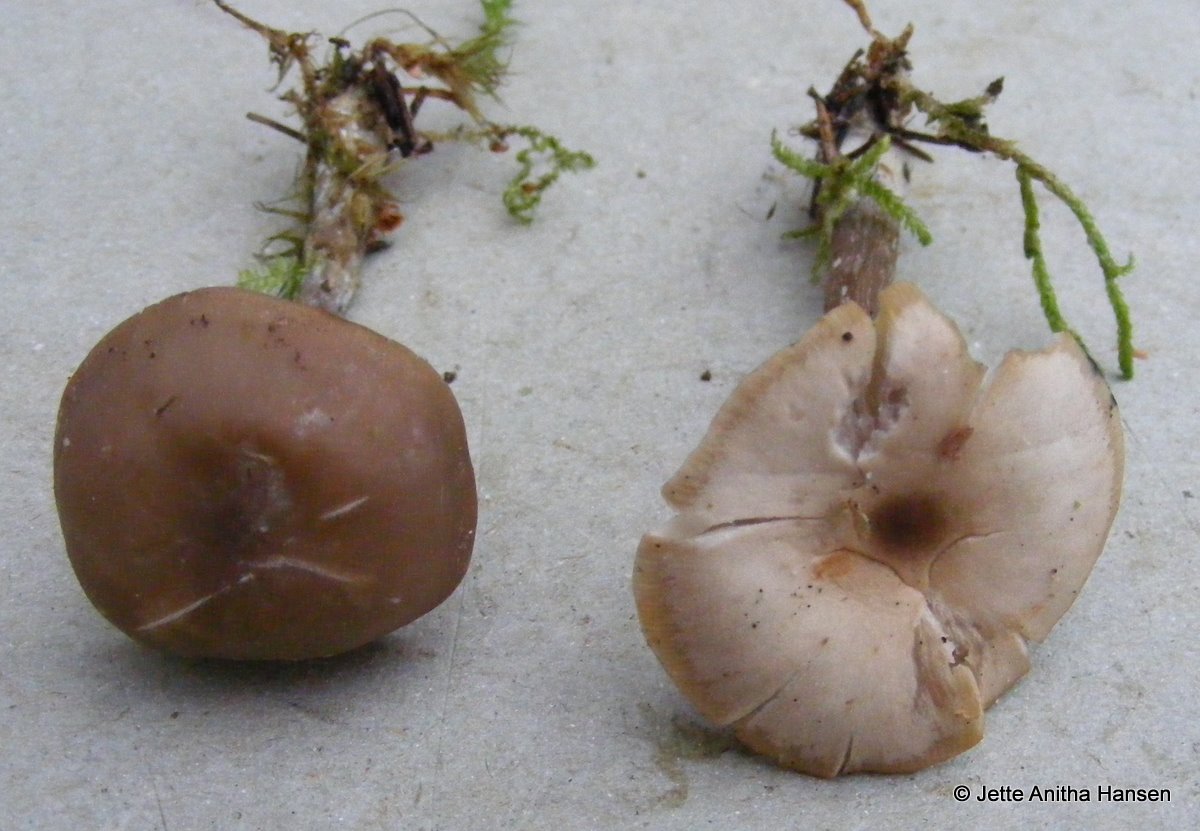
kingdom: Fungi
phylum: Basidiomycota
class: Agaricomycetes
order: Agaricales
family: Tricholomataceae
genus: Lepista
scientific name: Lepista metachroides
